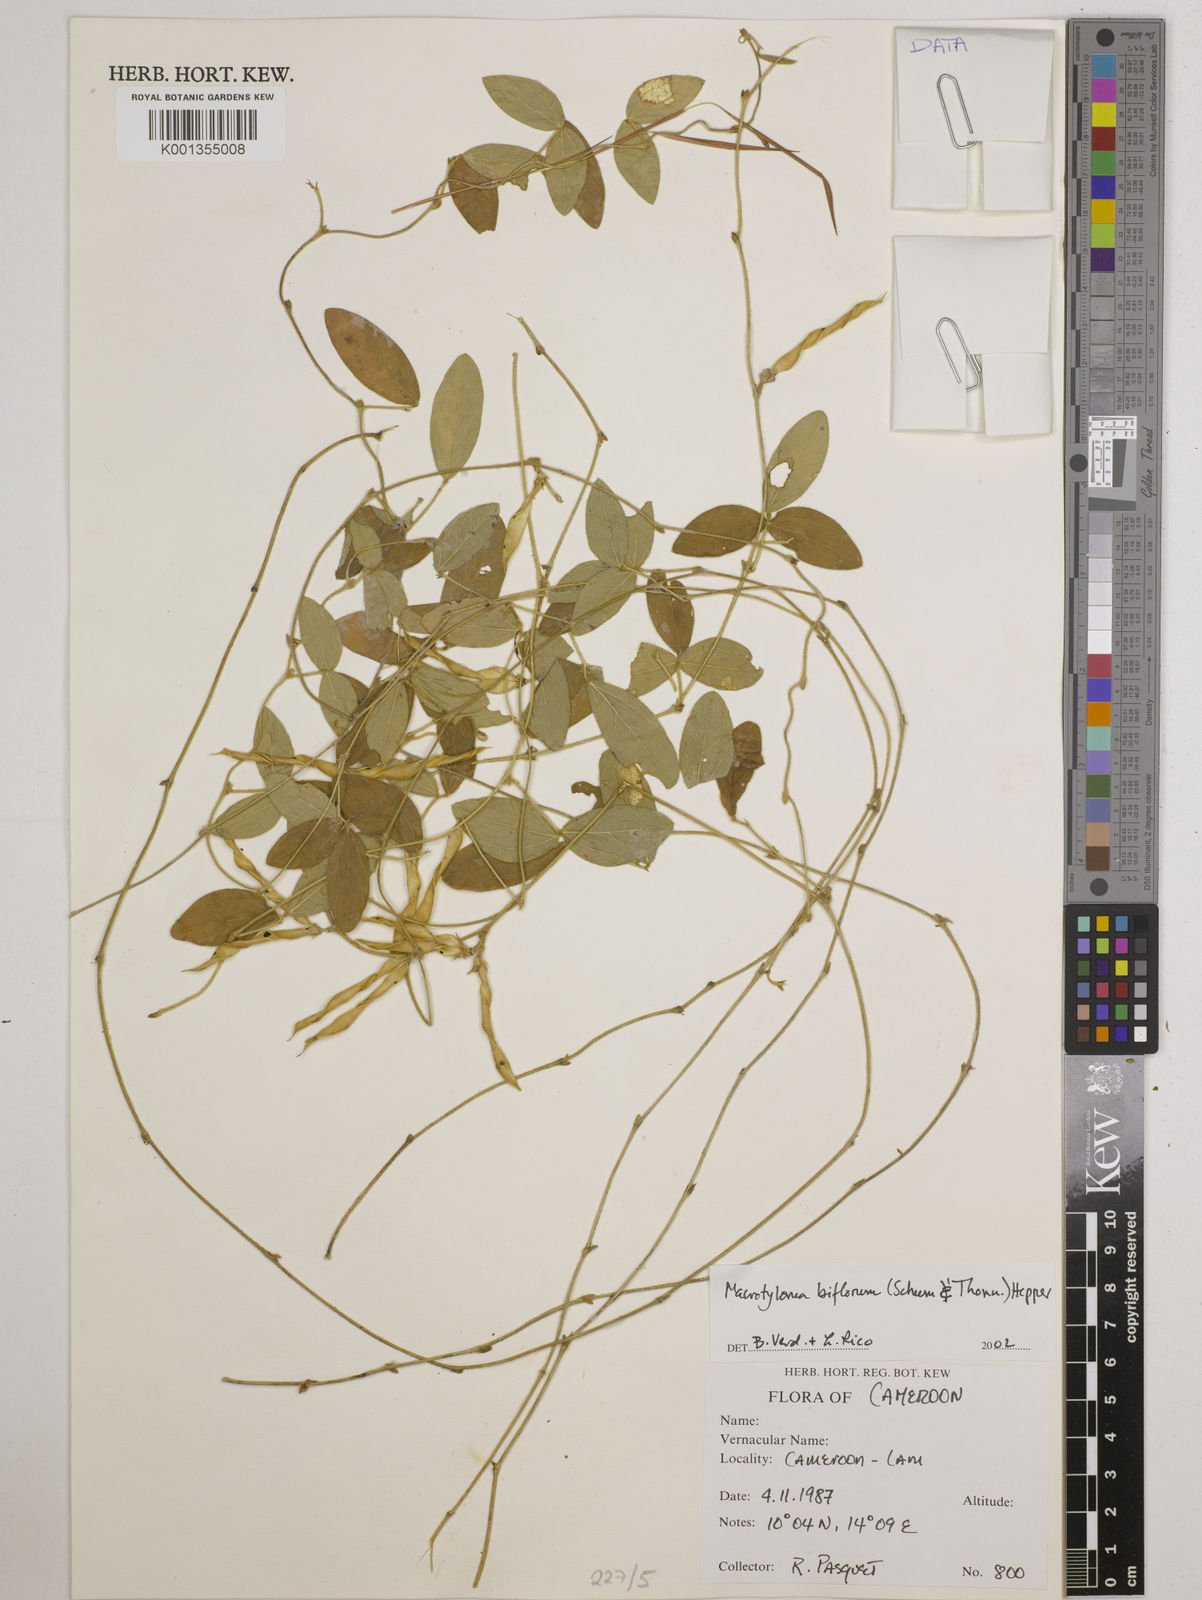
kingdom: Plantae
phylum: Tracheophyta
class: Magnoliopsida
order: Fabales
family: Fabaceae
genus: Macrotyloma
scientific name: Macrotyloma biflorum
